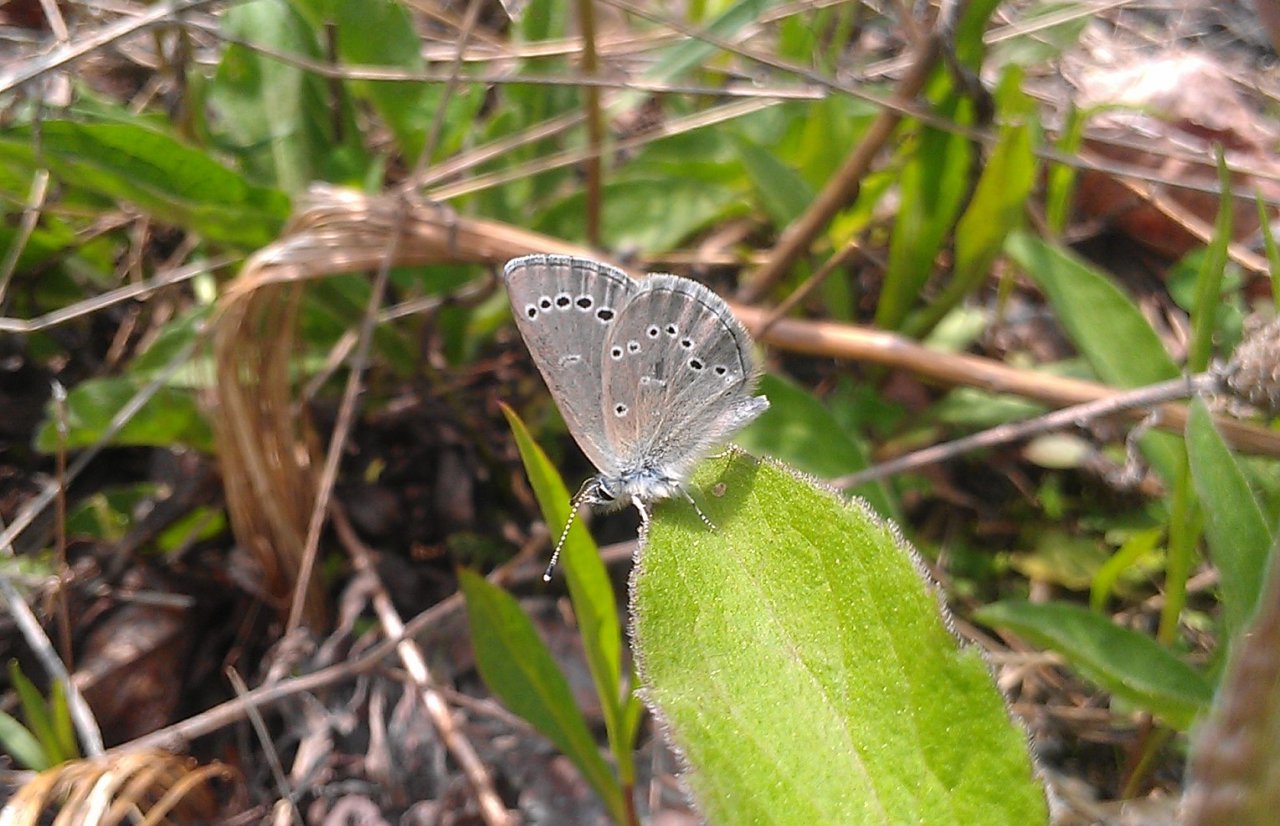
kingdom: Animalia
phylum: Arthropoda
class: Insecta
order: Lepidoptera
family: Lycaenidae
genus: Glaucopsyche
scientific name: Glaucopsyche lygdamus
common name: Silvery Blue
